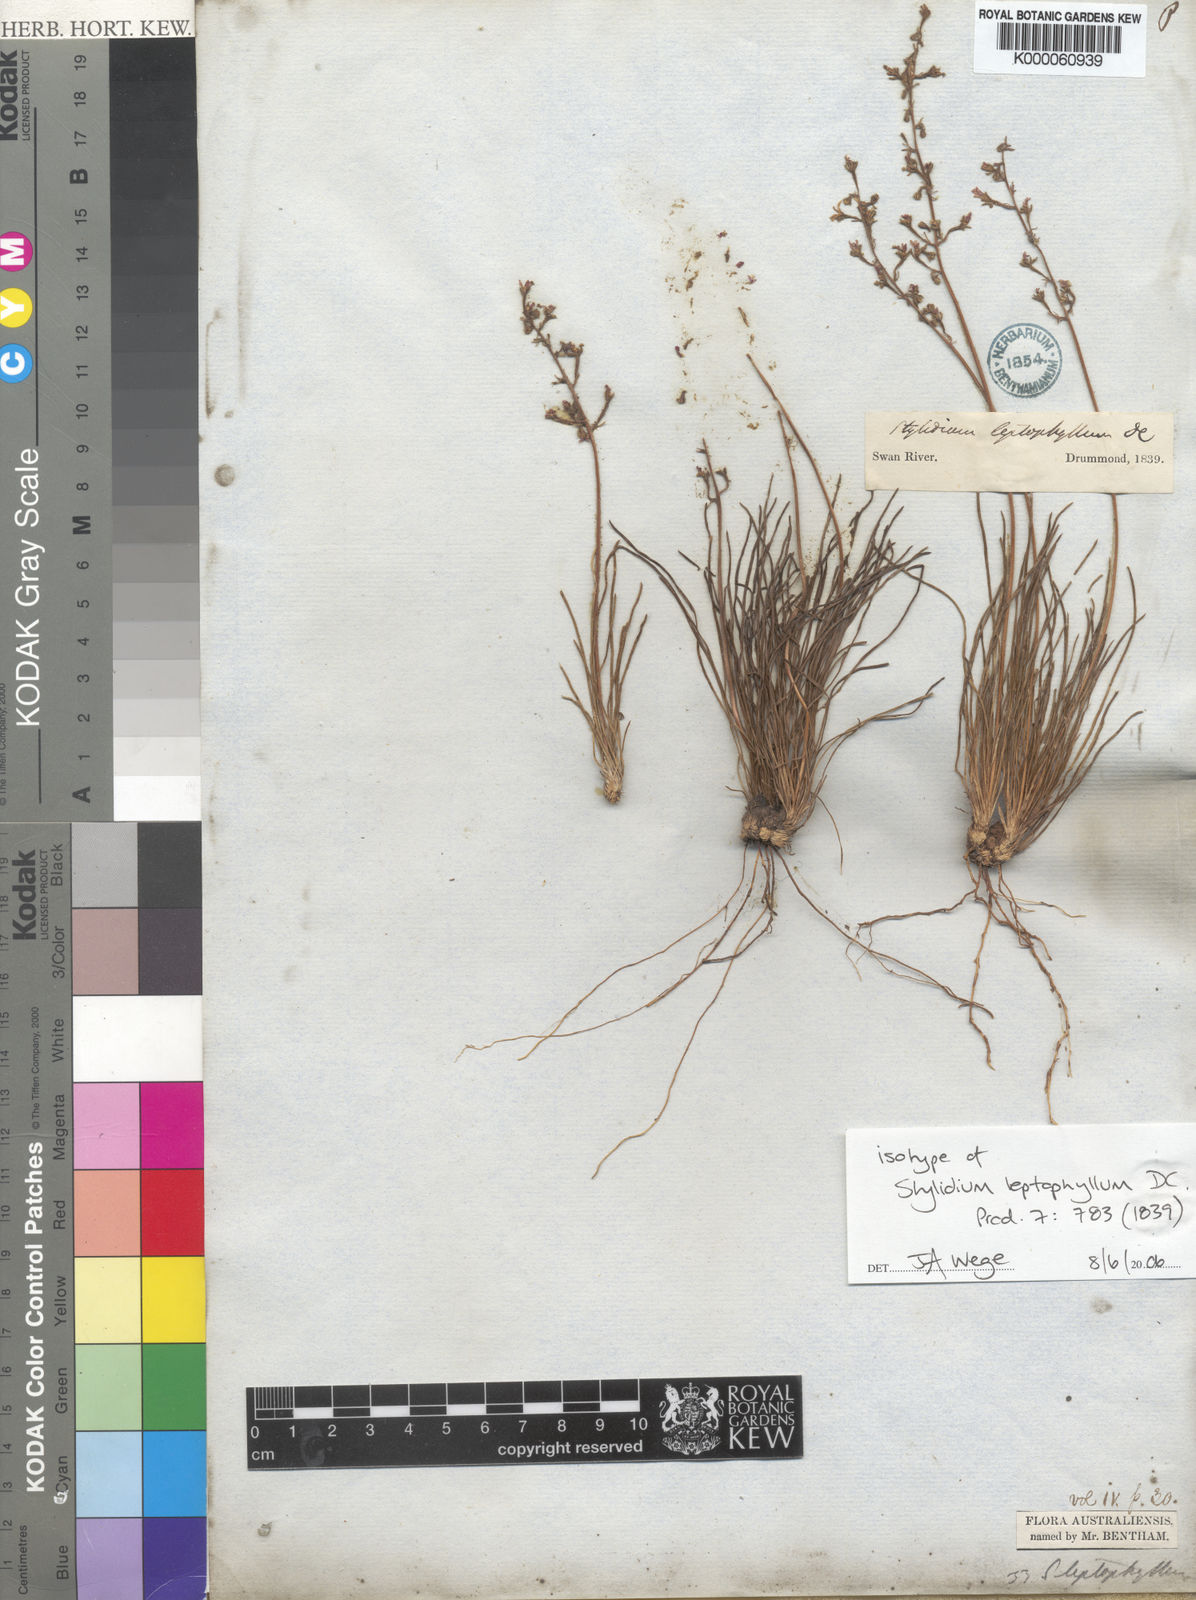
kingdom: Plantae
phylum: Tracheophyta
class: Magnoliopsida
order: Asterales
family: Stylidiaceae
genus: Stylidium
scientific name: Stylidium leptophyllum
